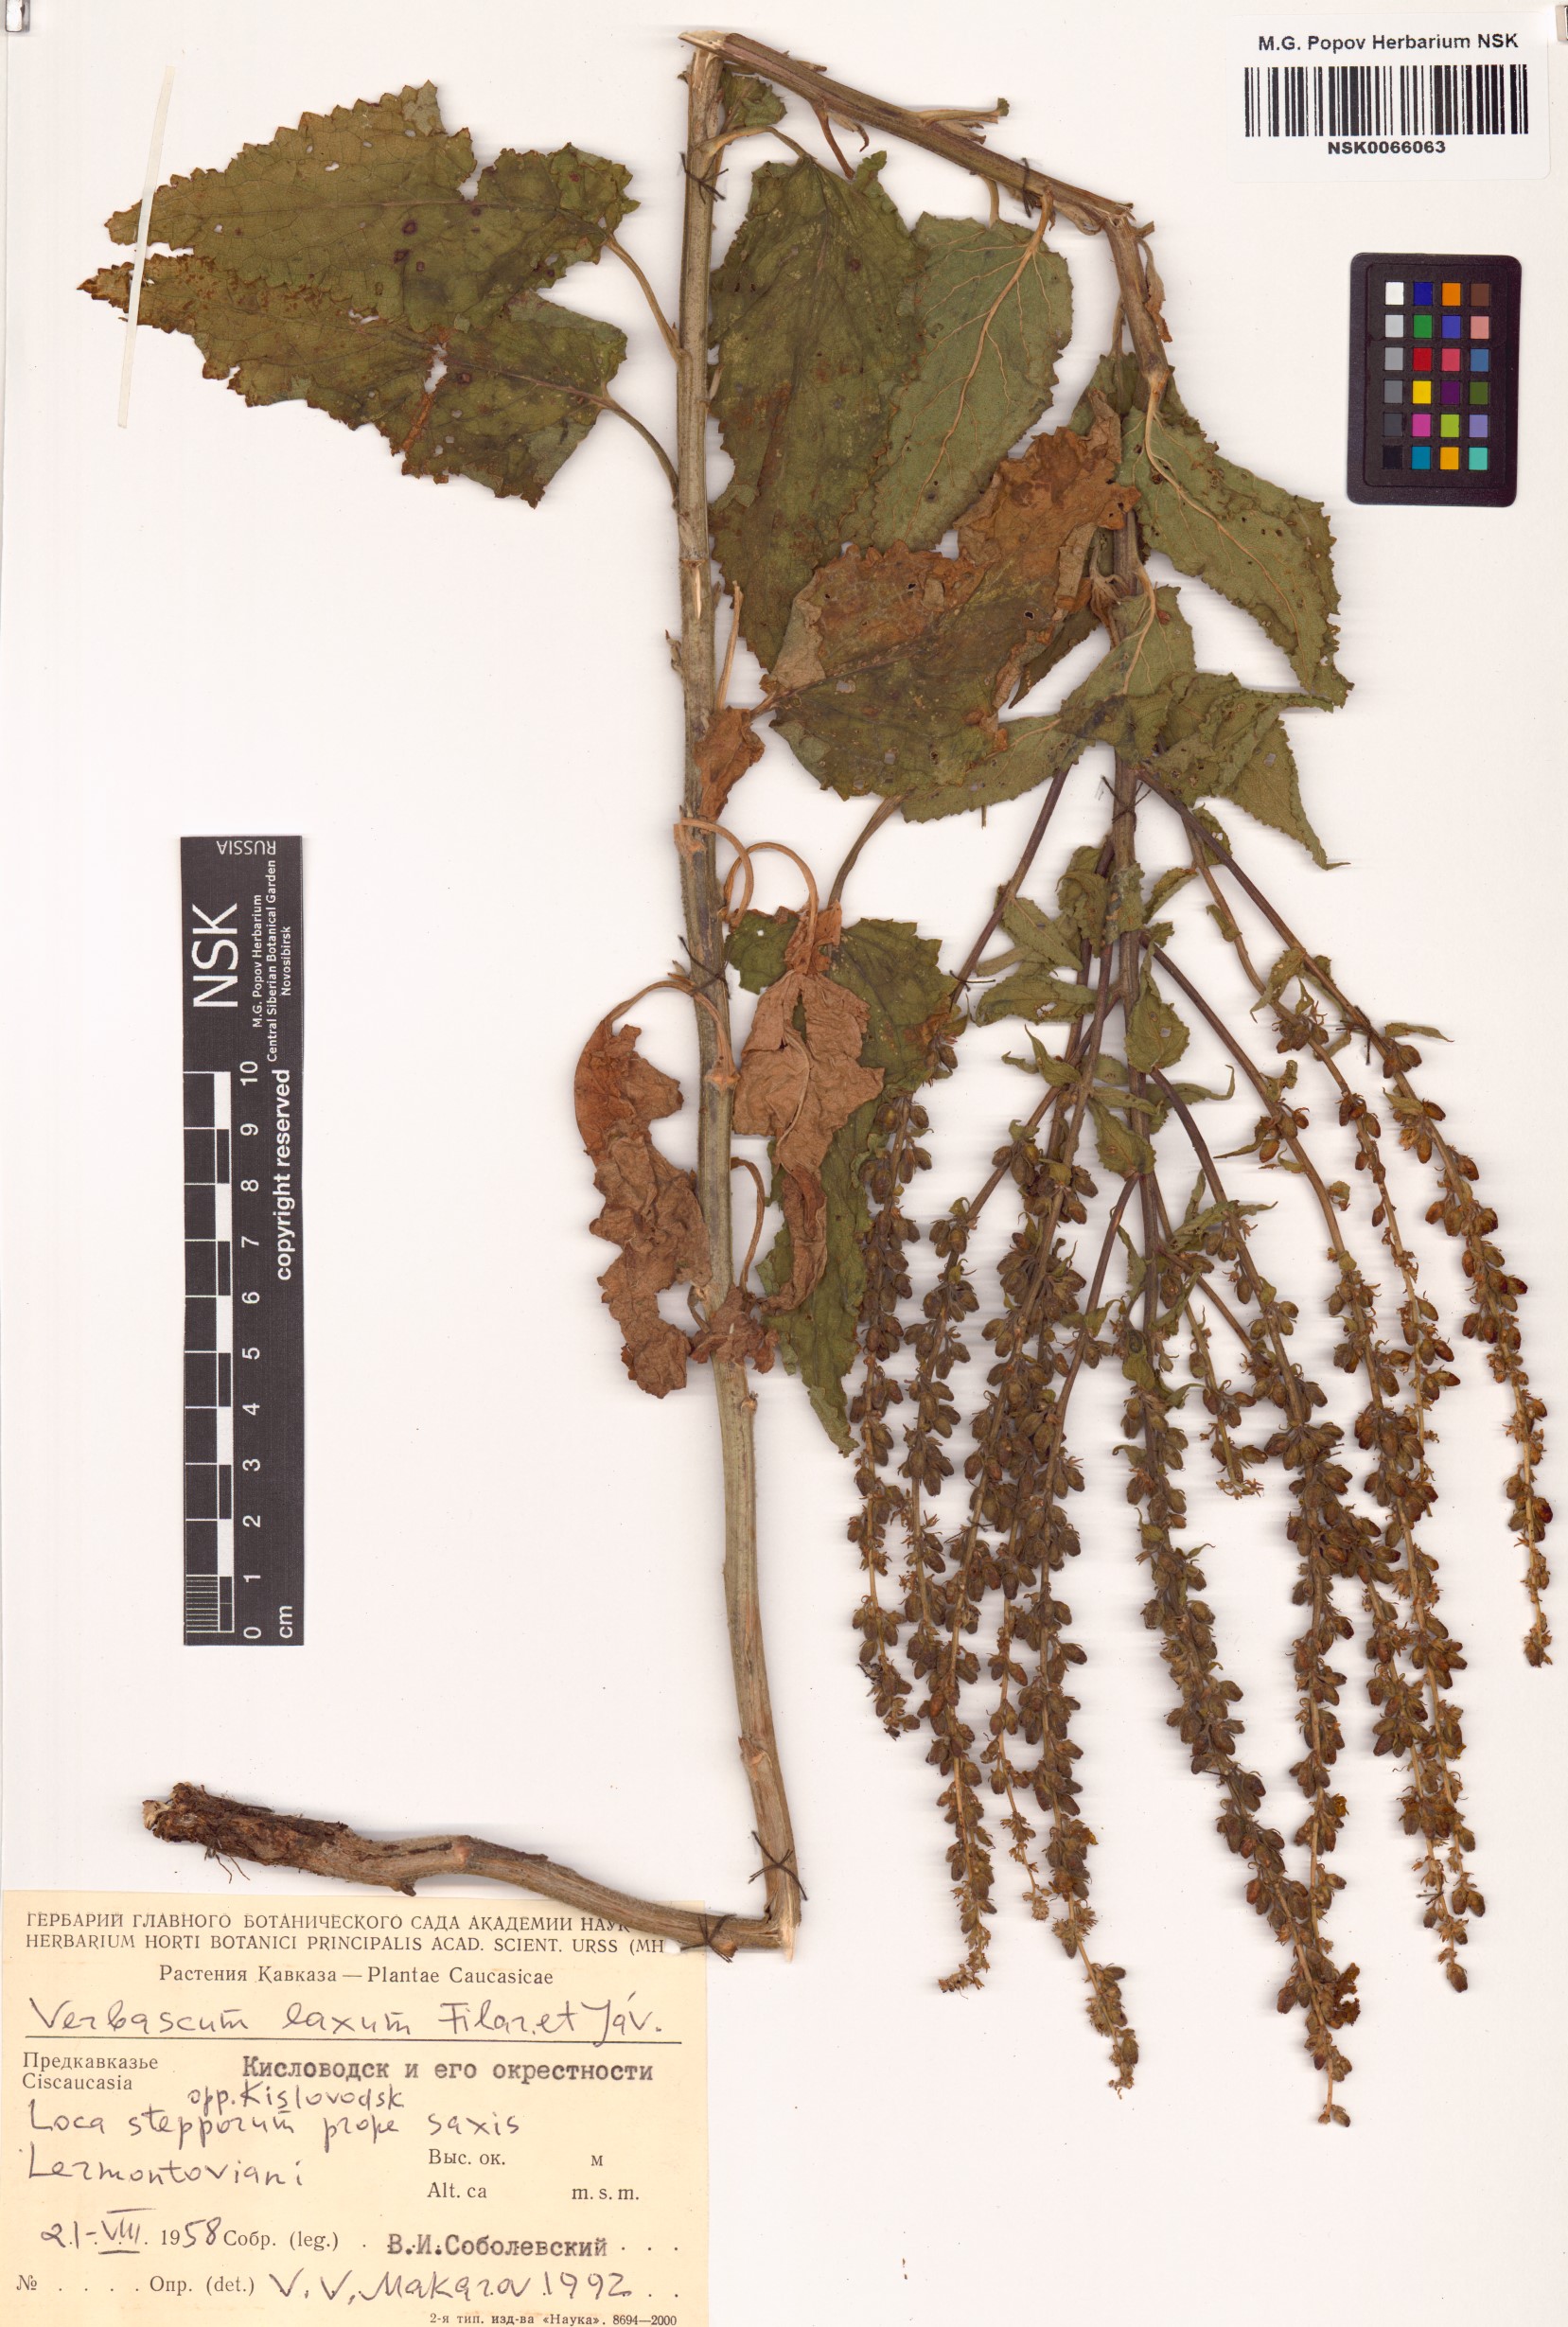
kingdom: Plantae
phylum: Tracheophyta
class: Magnoliopsida
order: Lamiales
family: Scrophulariaceae
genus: Verbascum
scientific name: Verbascum chaixii
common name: Nettle-leaved mullein
